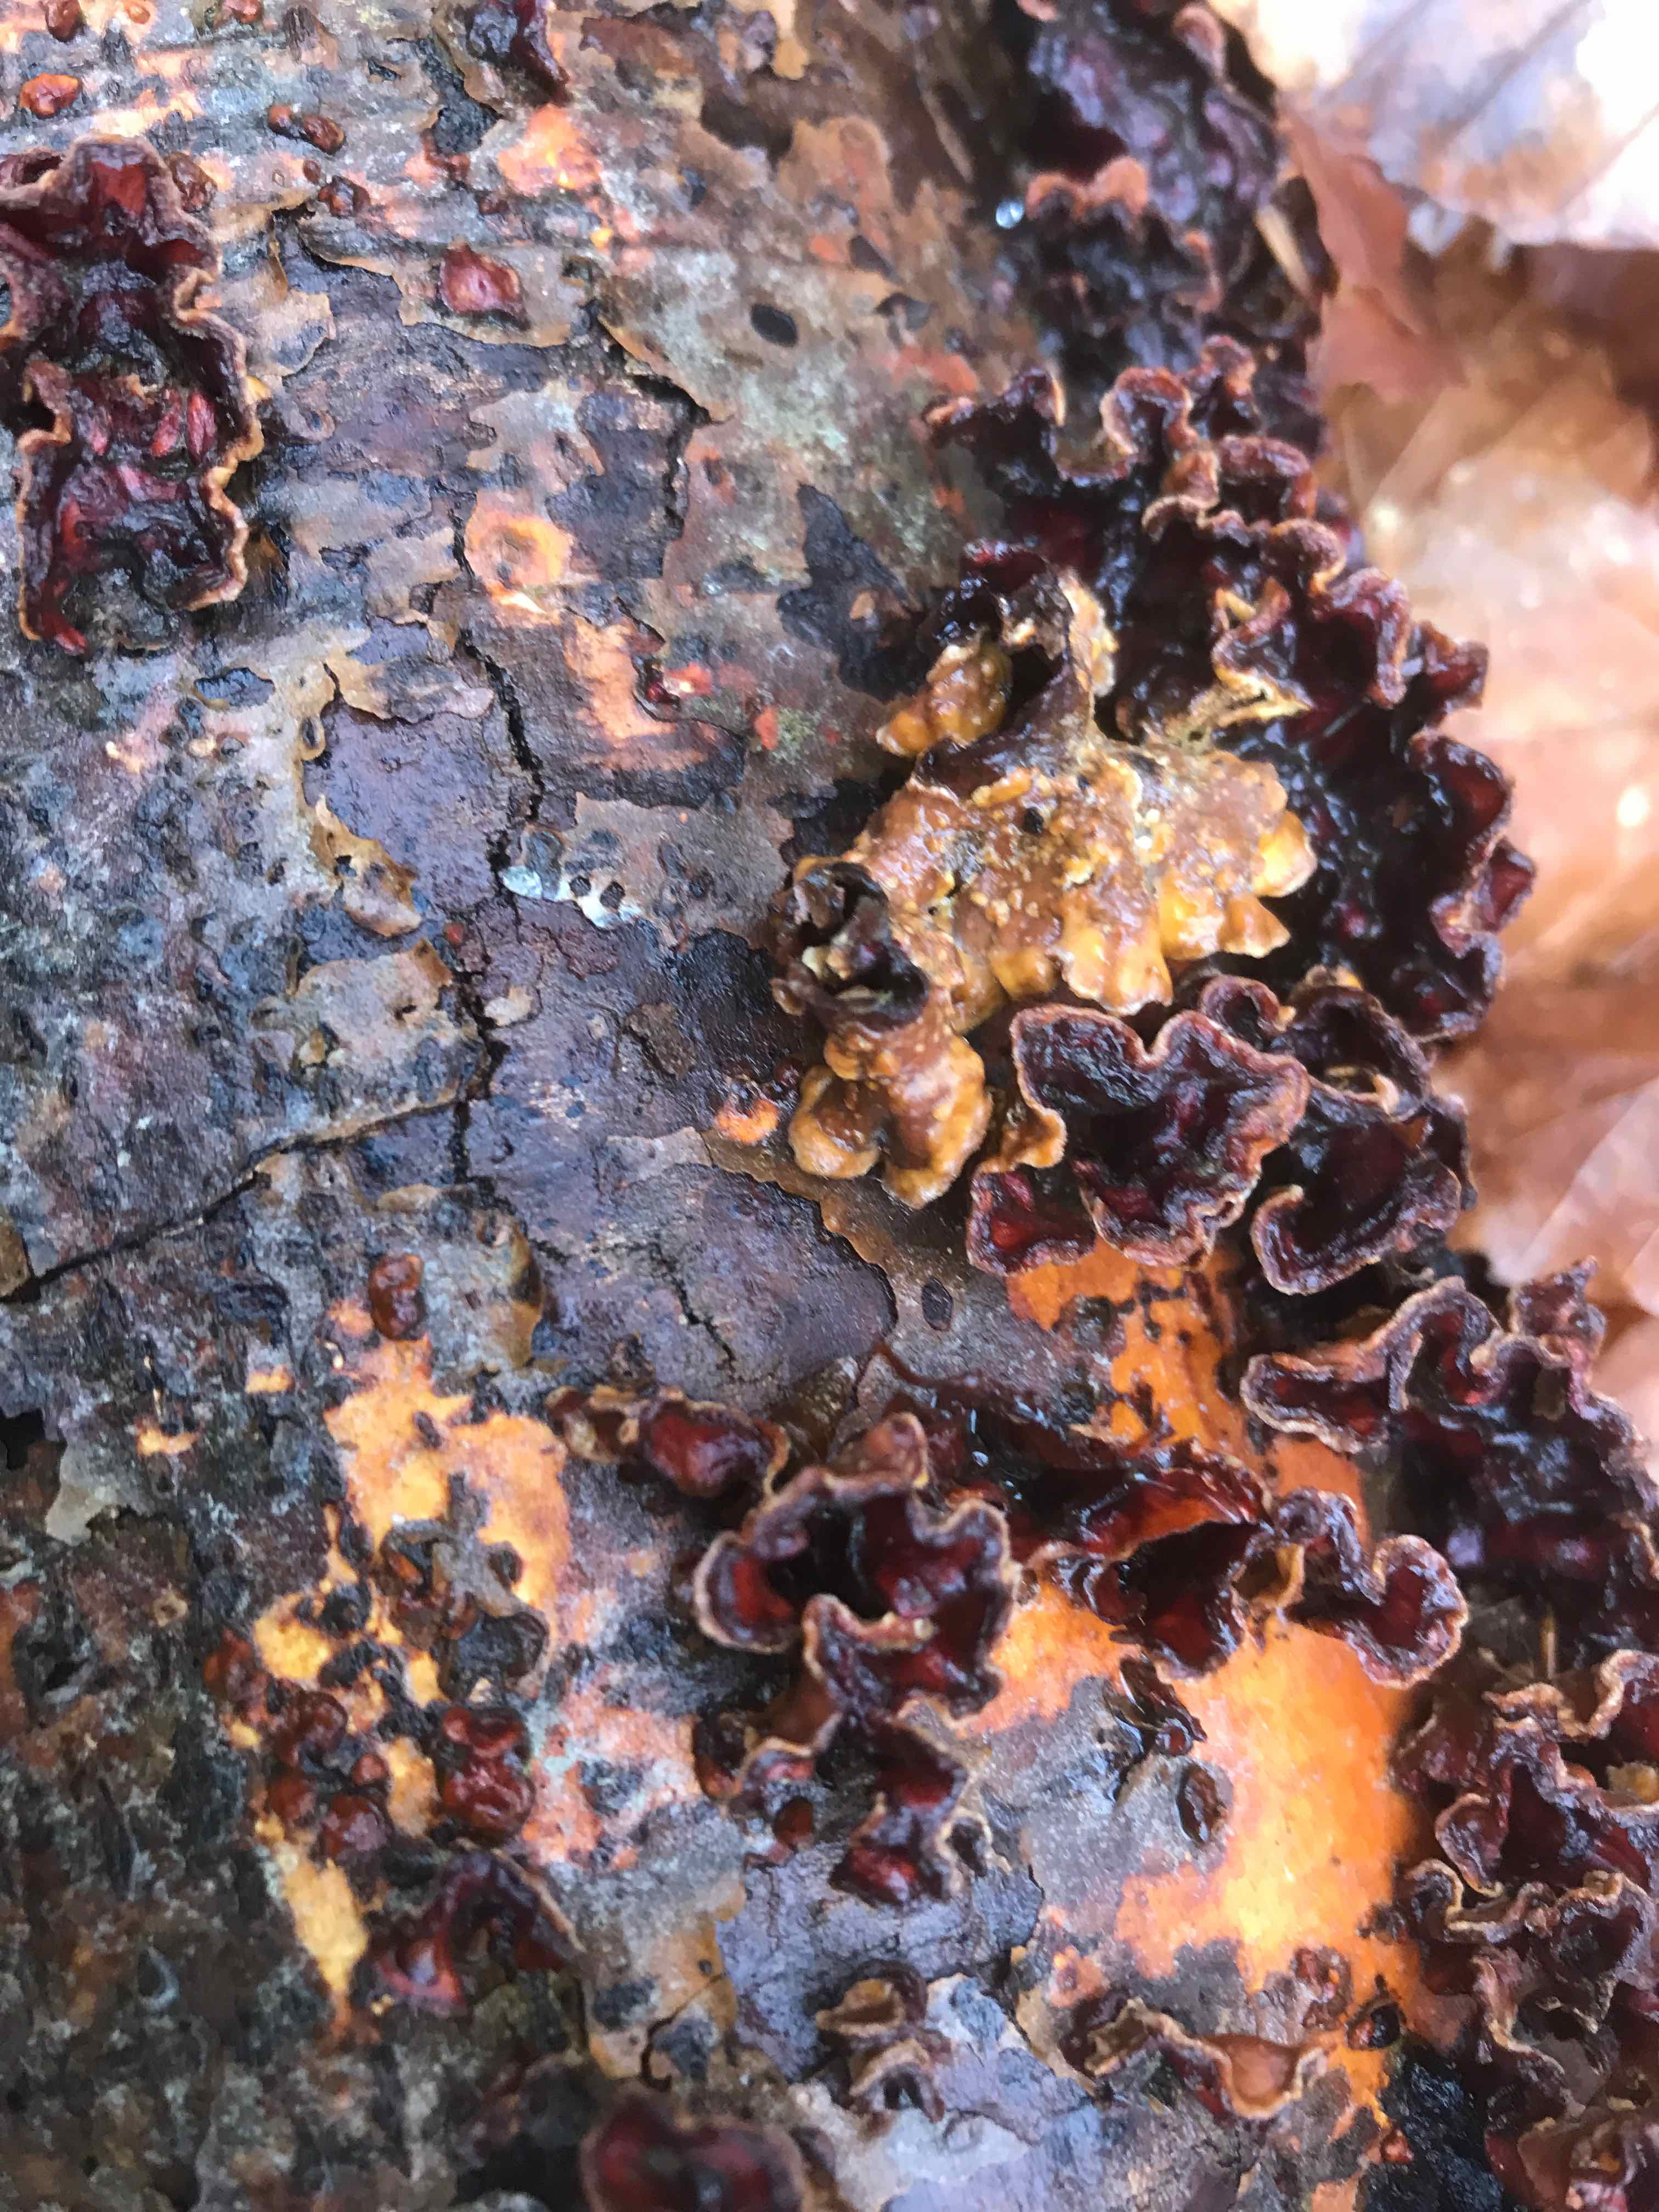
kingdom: Fungi
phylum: Basidiomycota
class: Agaricomycetes
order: Agaricales
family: Cyphellaceae
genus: Chondrostereum
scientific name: Chondrostereum purpureum
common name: purpurlædersvamp
